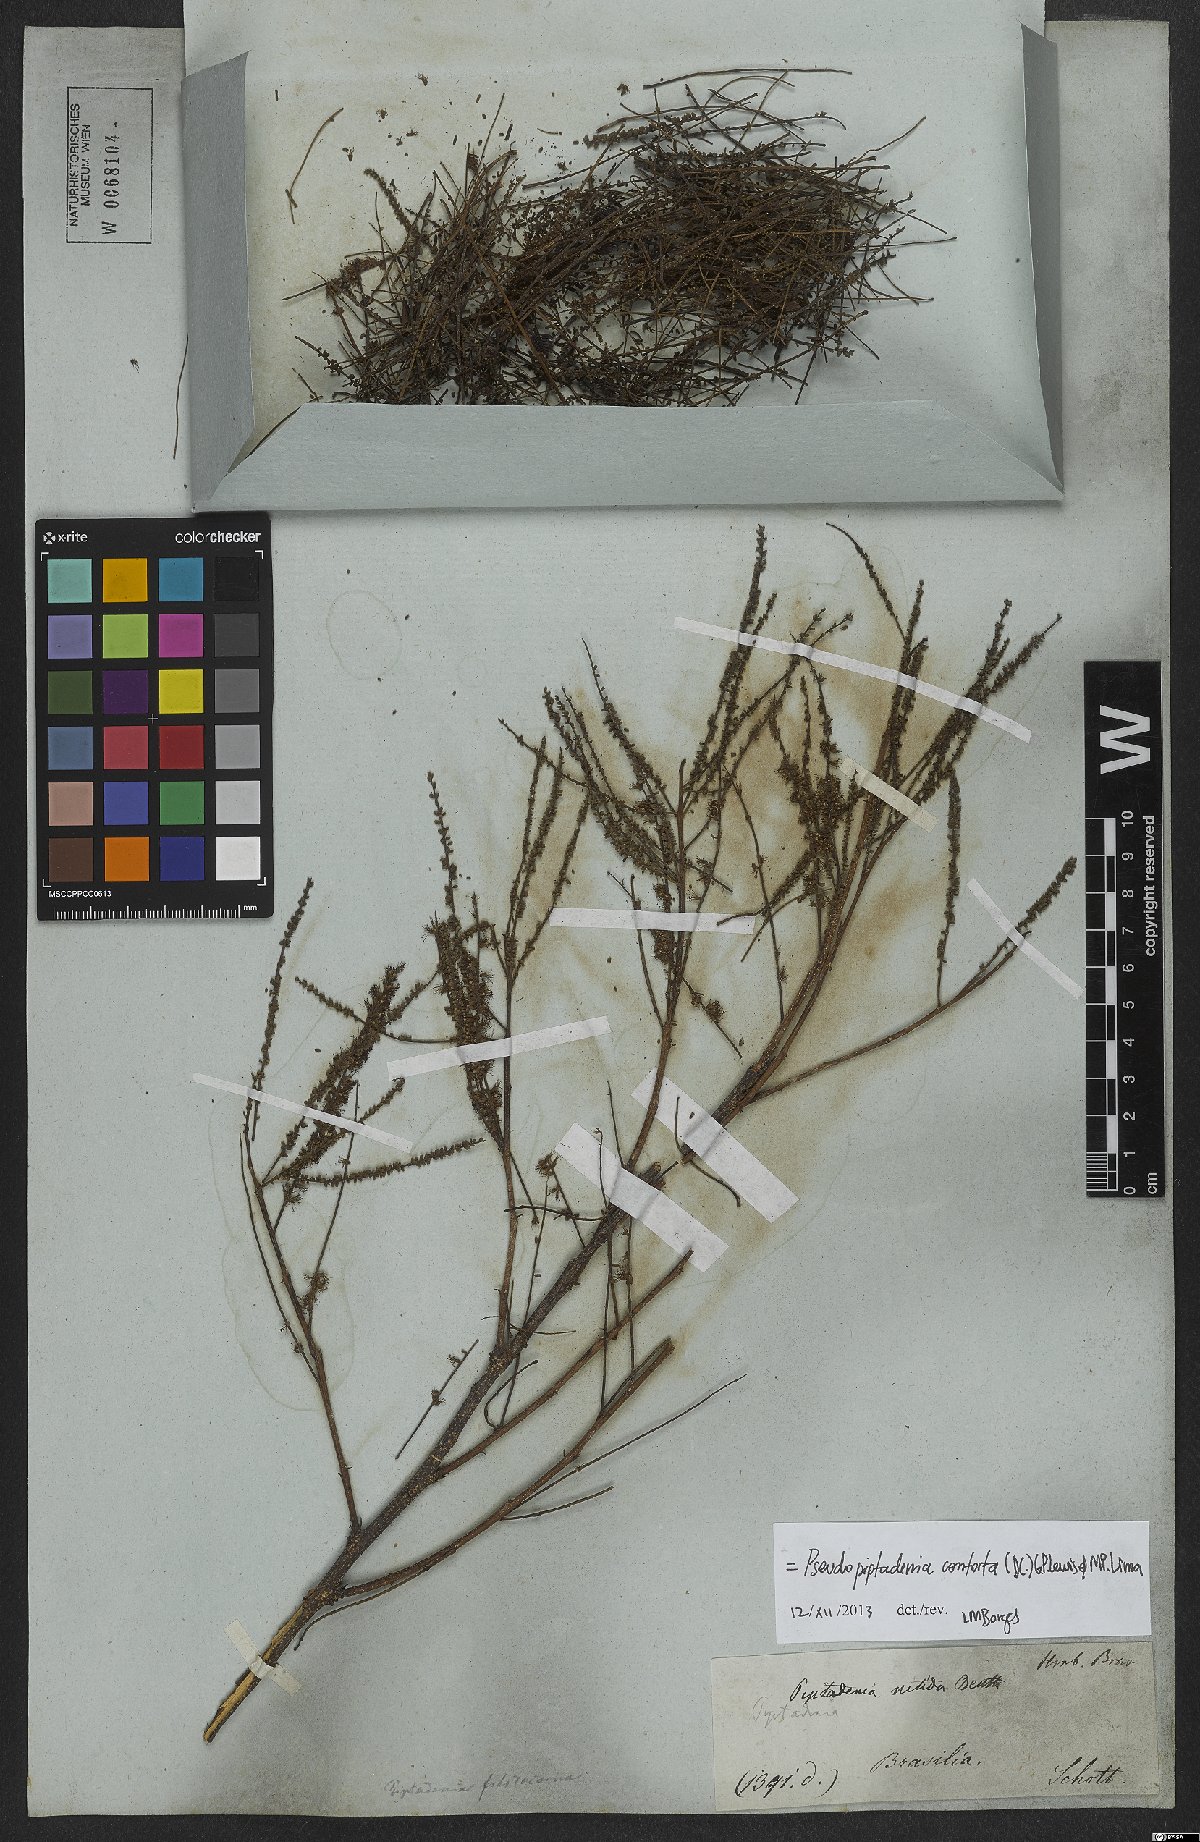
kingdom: Plantae
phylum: Tracheophyta
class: Magnoliopsida
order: Fabales
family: Fabaceae
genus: Pseudopiptadenia
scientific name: Pseudopiptadenia contorta
